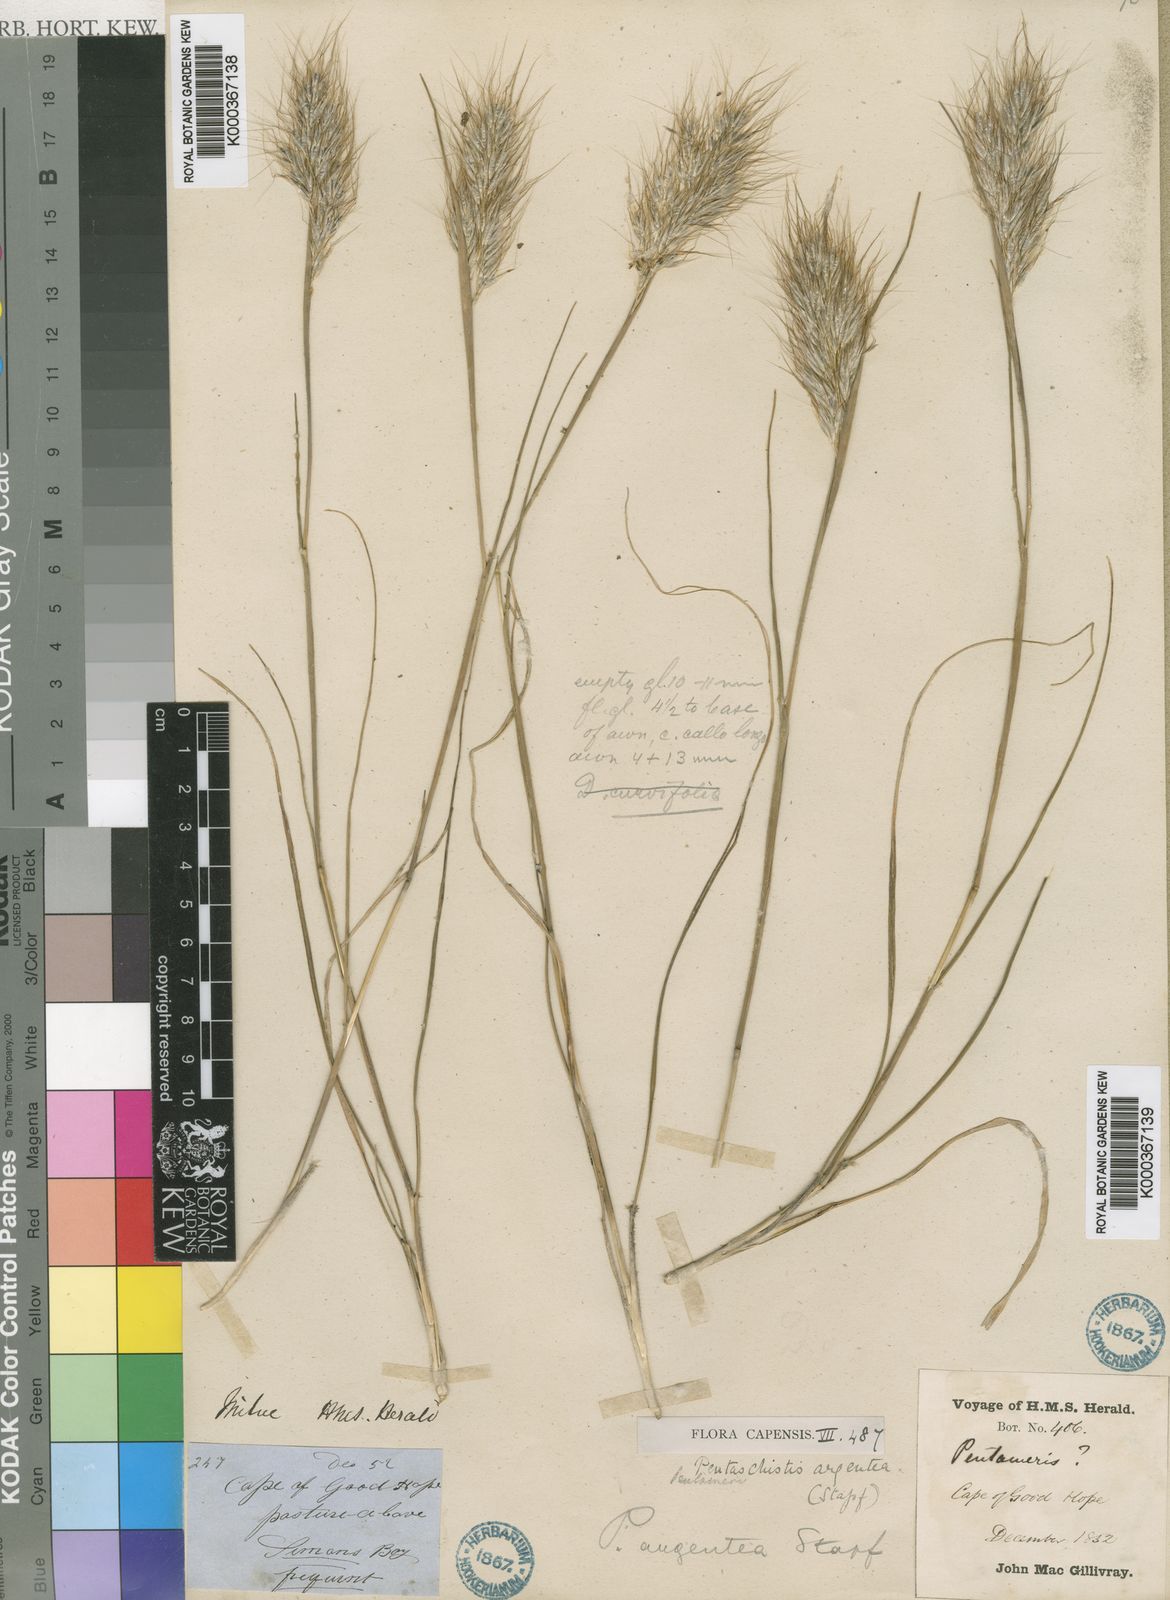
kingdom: Plantae
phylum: Tracheophyta
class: Liliopsida
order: Poales
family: Poaceae
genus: Pentameris
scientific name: Pentameris argentea
